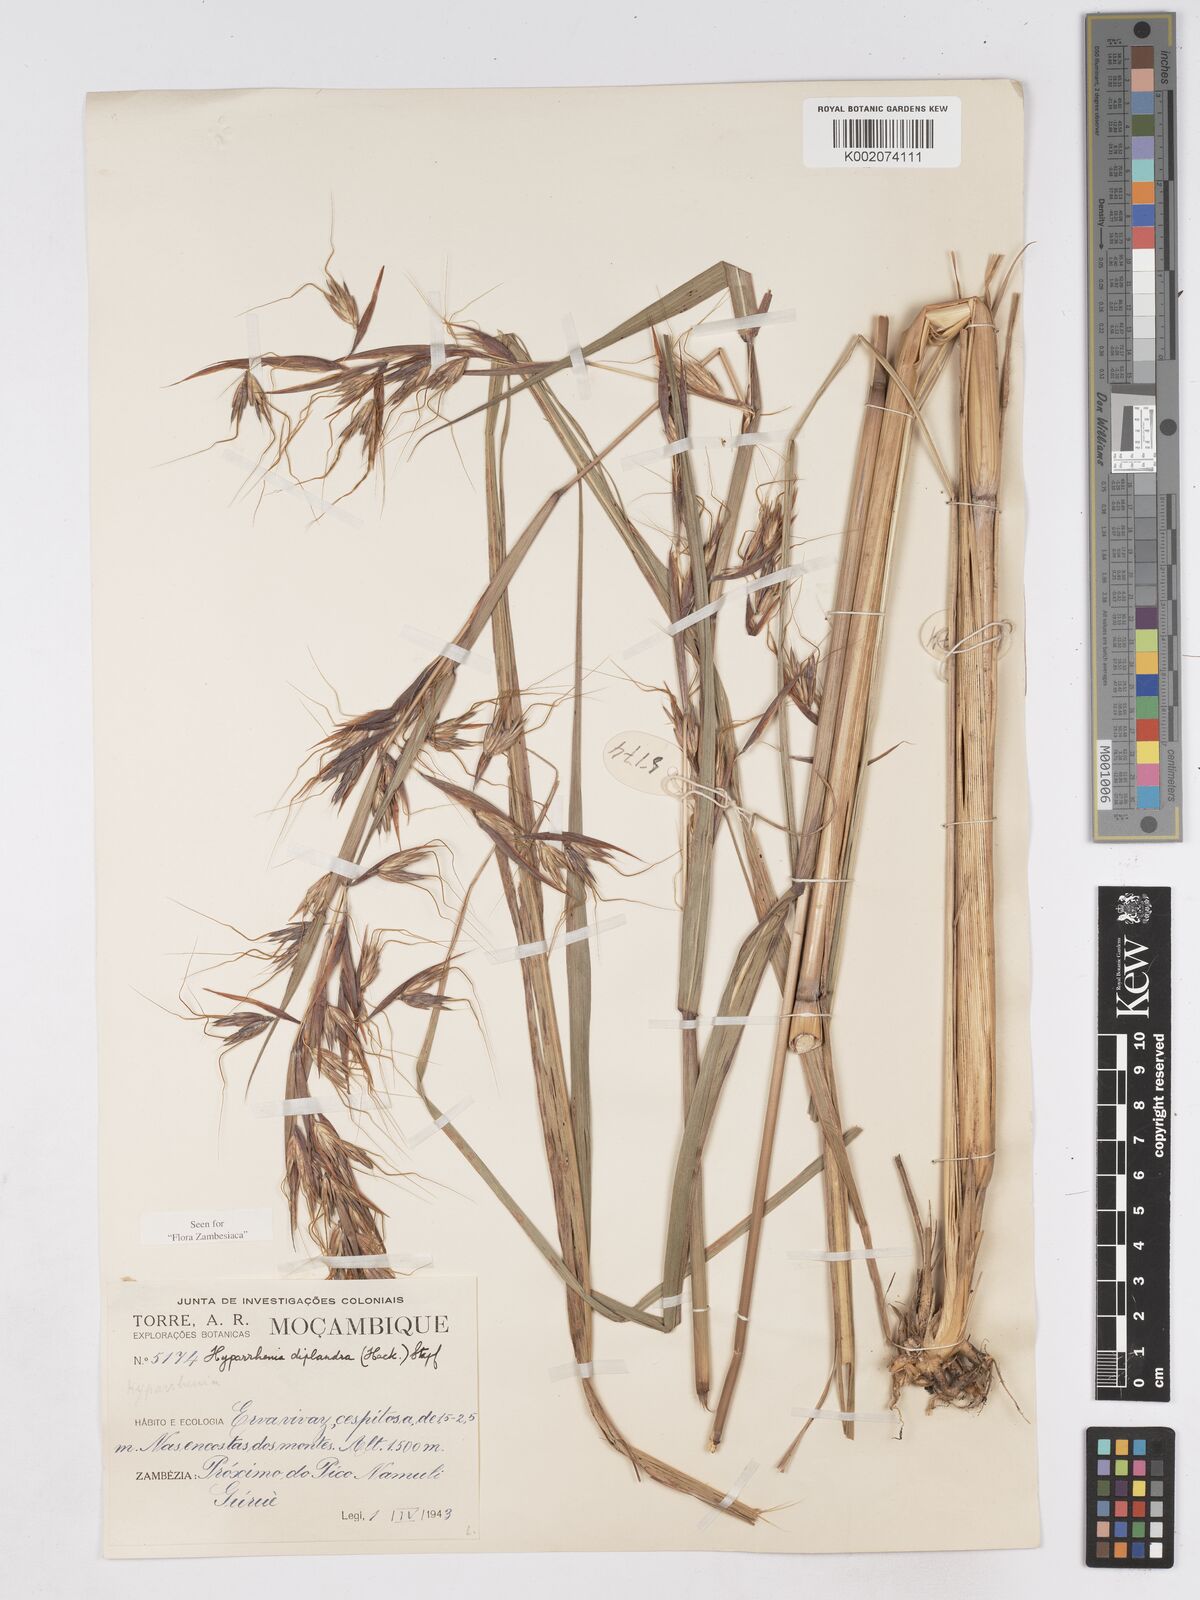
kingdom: Plantae
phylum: Tracheophyta
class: Liliopsida
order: Poales
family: Poaceae
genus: Hyparrhenia
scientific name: Hyparrhenia diplandra
